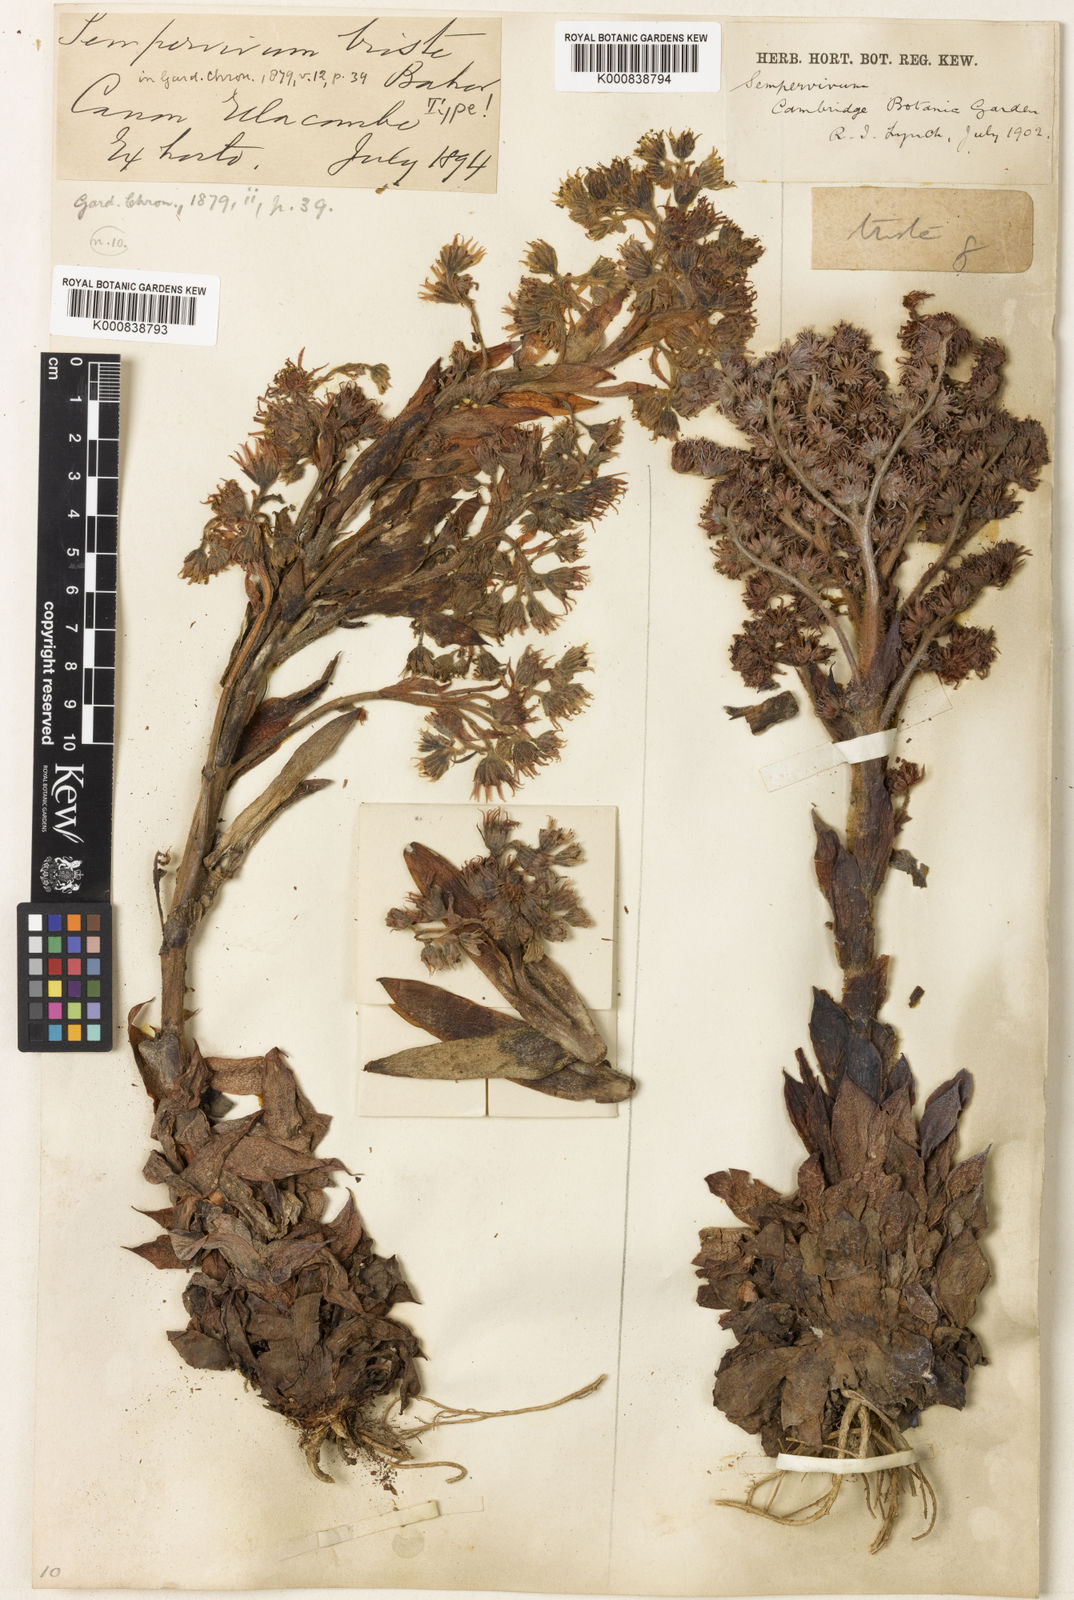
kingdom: Plantae
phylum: Tracheophyta
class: Magnoliopsida
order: Saxifragales
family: Crassulaceae
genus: Sempervivum
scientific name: Sempervivum tectorum
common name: House-leek
